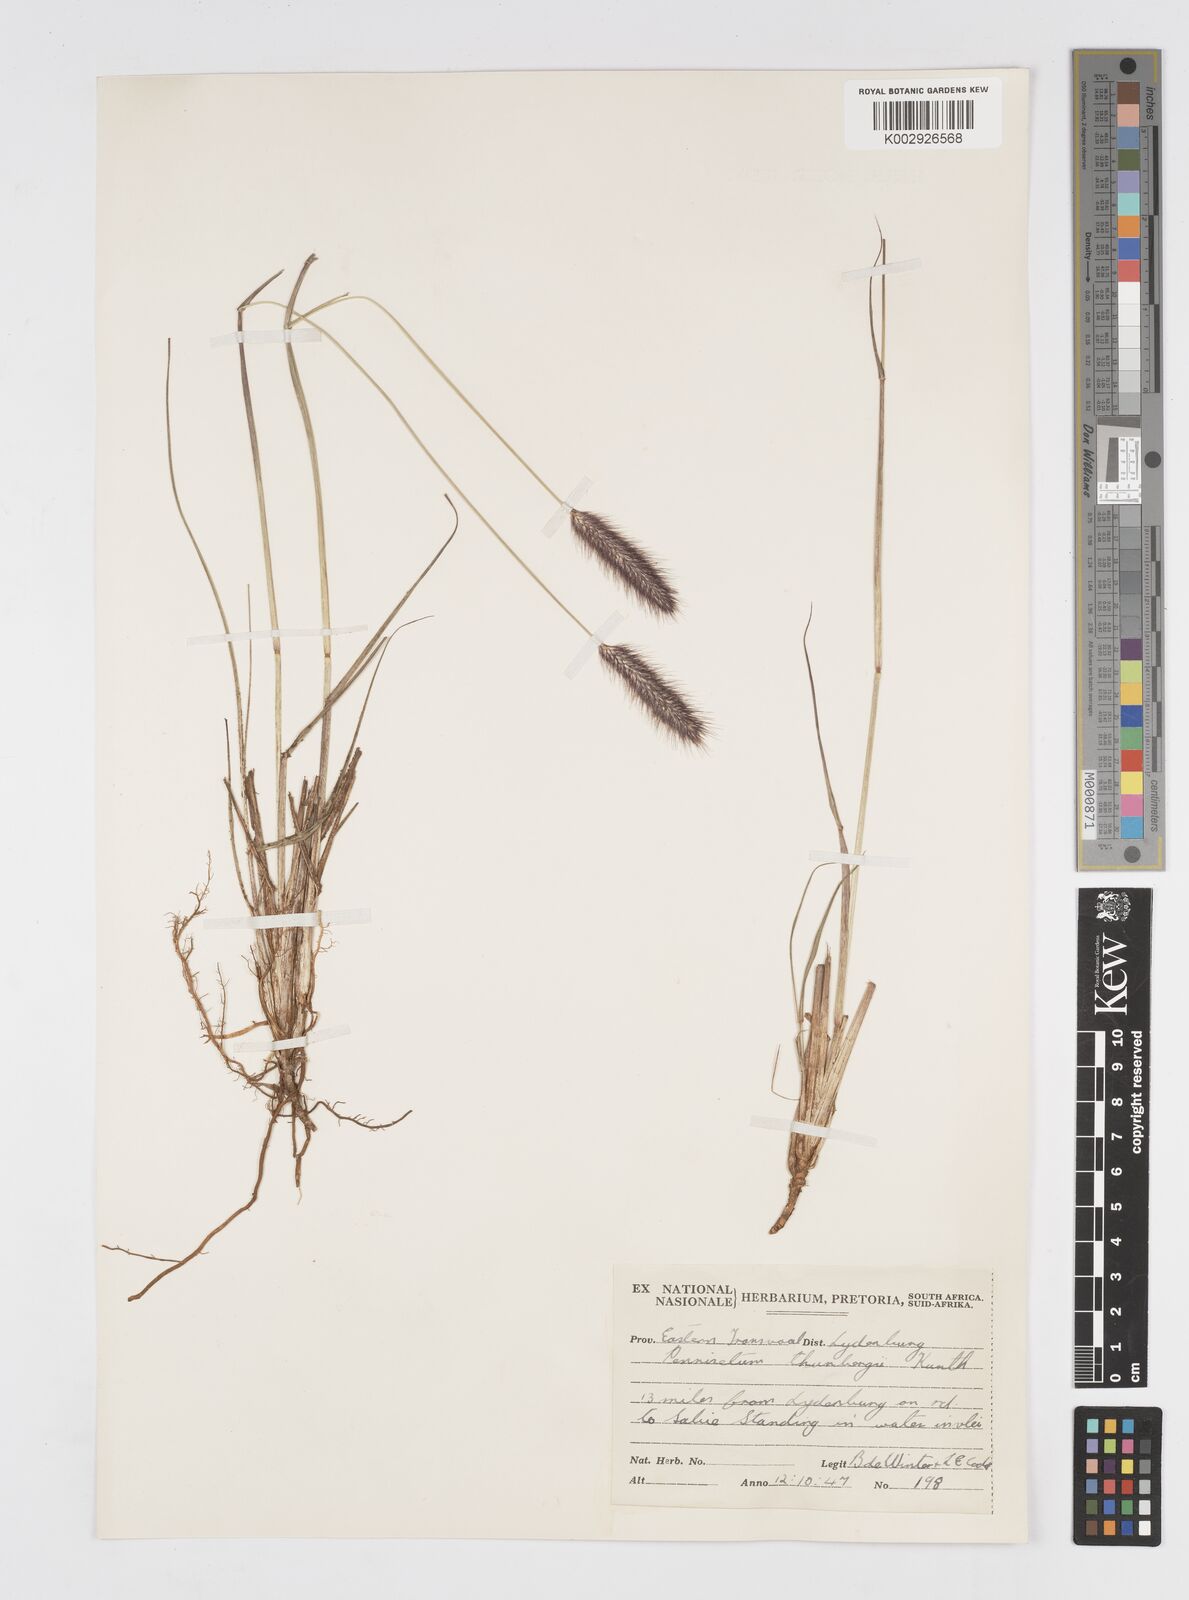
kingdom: Plantae
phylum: Tracheophyta
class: Liliopsida
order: Poales
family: Poaceae
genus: Cenchrus
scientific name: Cenchrus geniculatus
